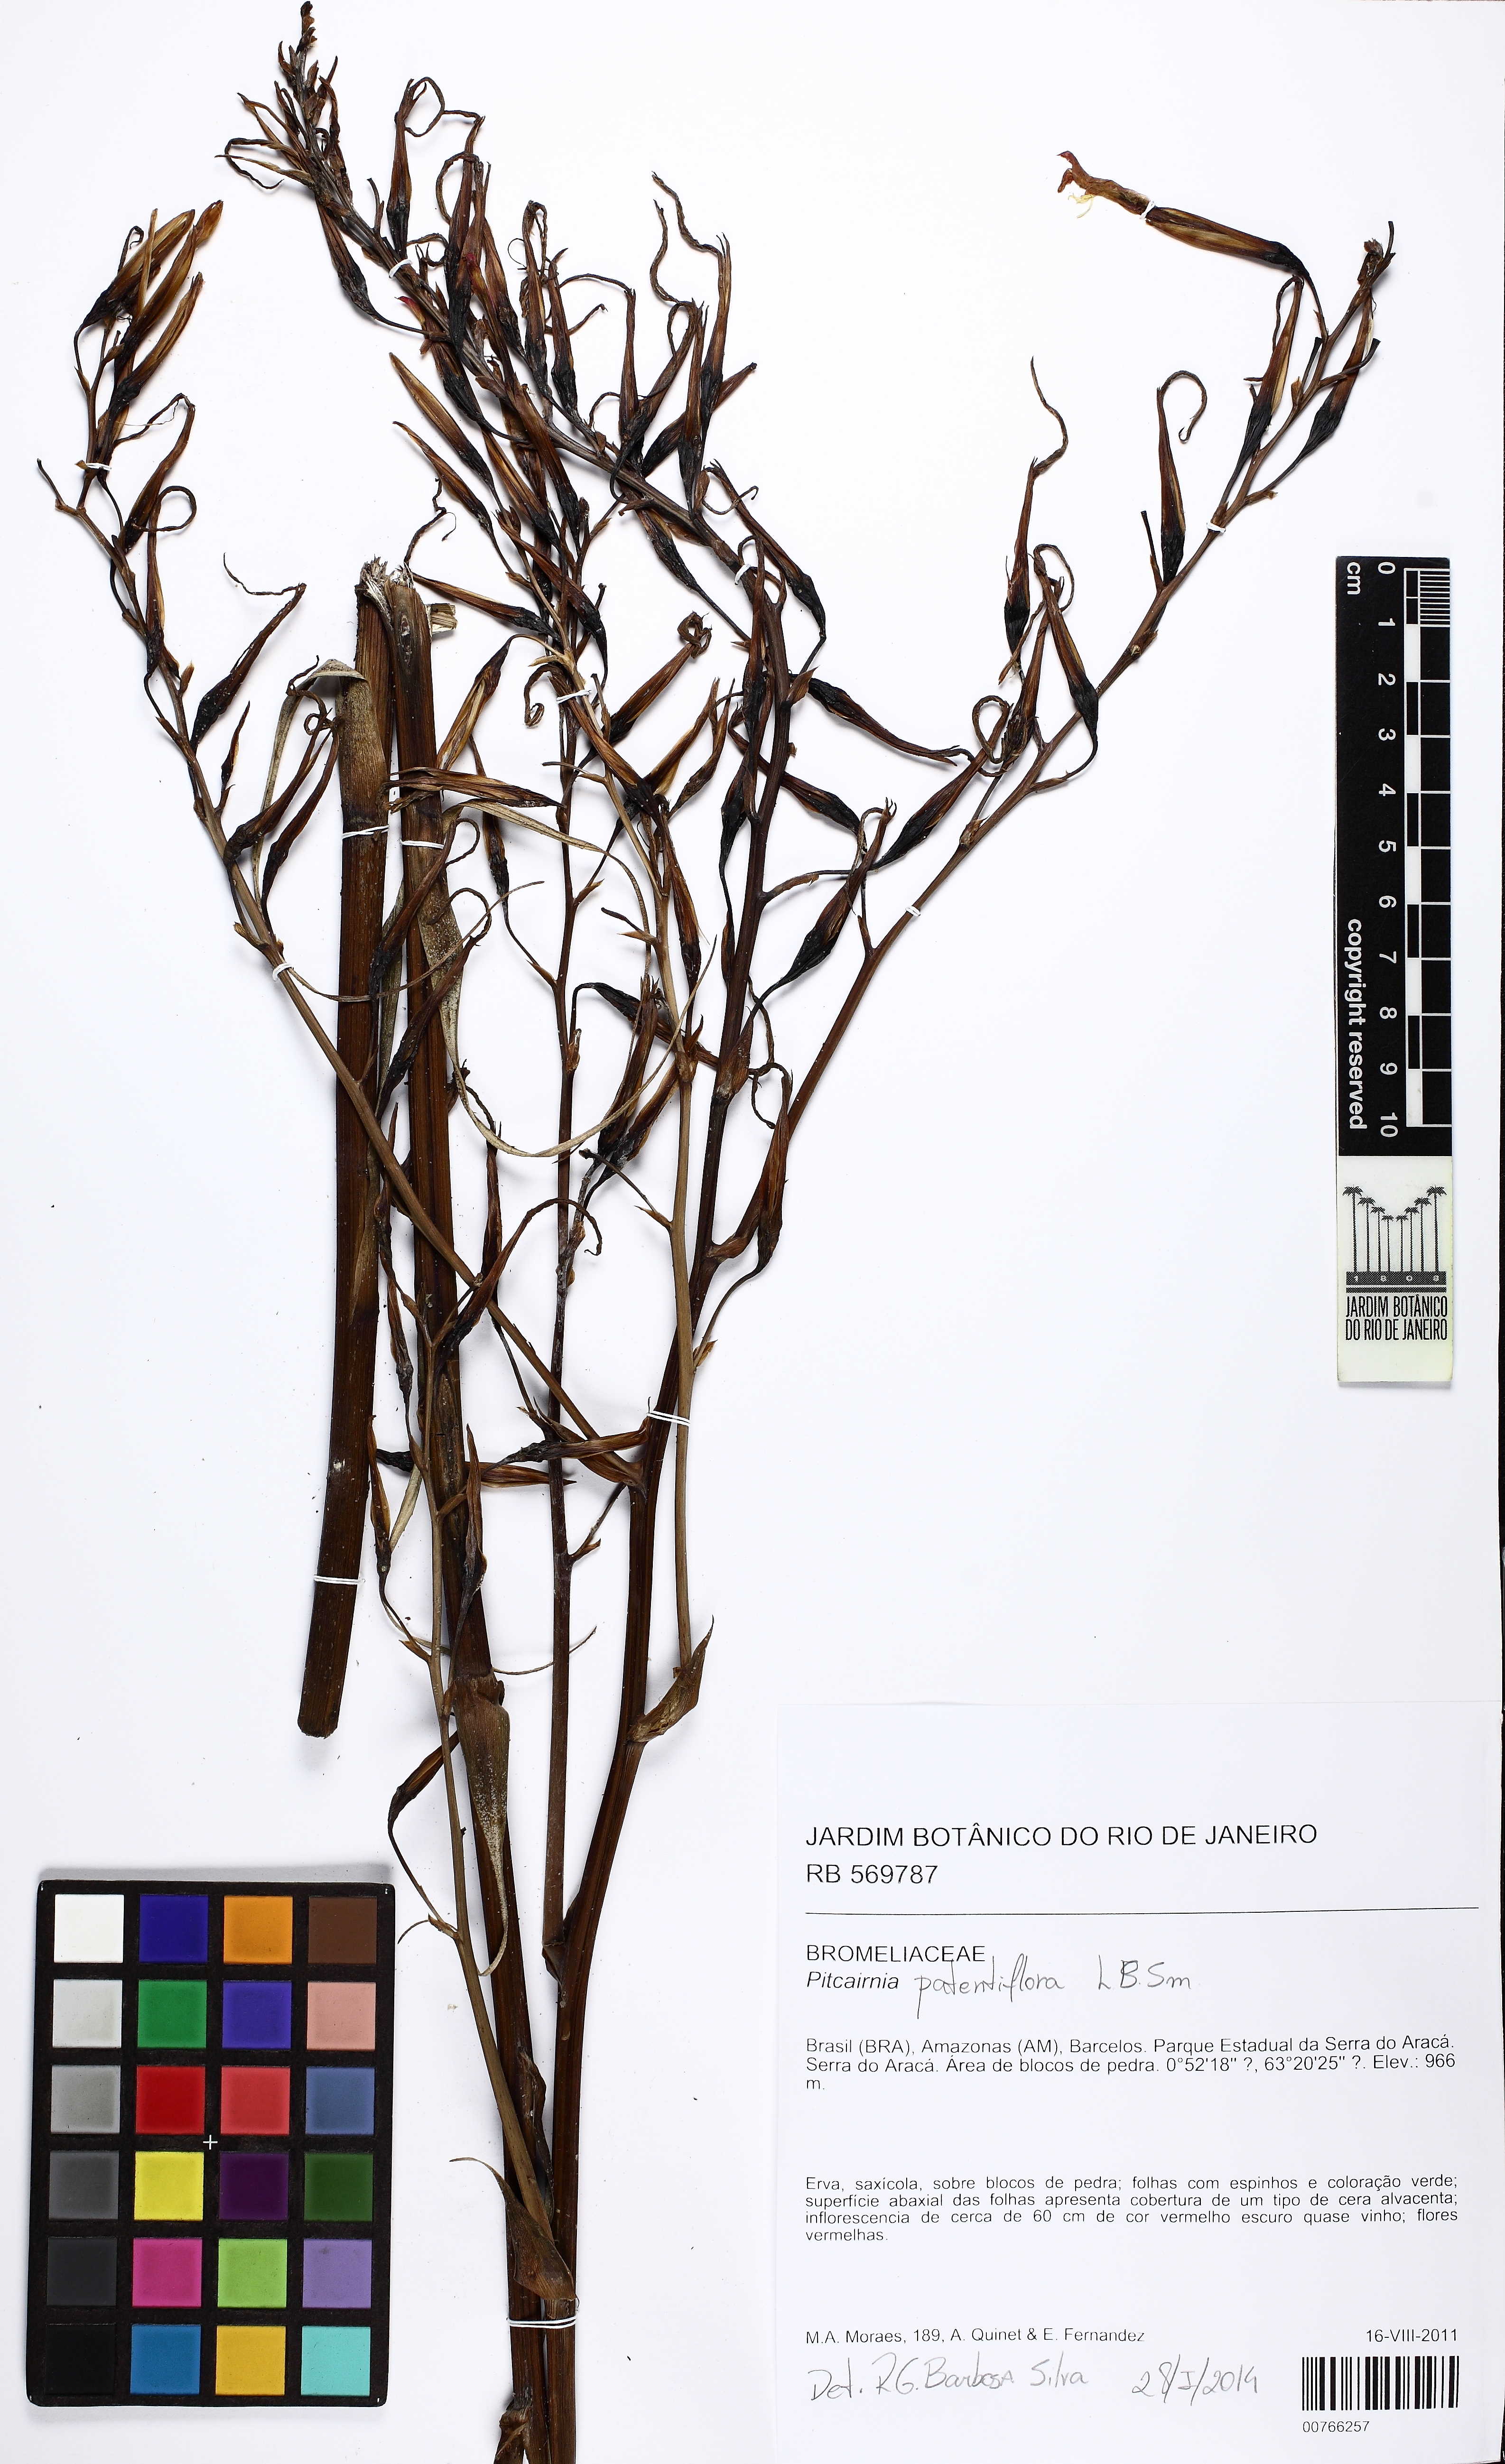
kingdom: Plantae
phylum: Tracheophyta
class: Liliopsida
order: Poales
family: Bromeliaceae
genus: Pitcairnia
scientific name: Pitcairnia patentiflora
